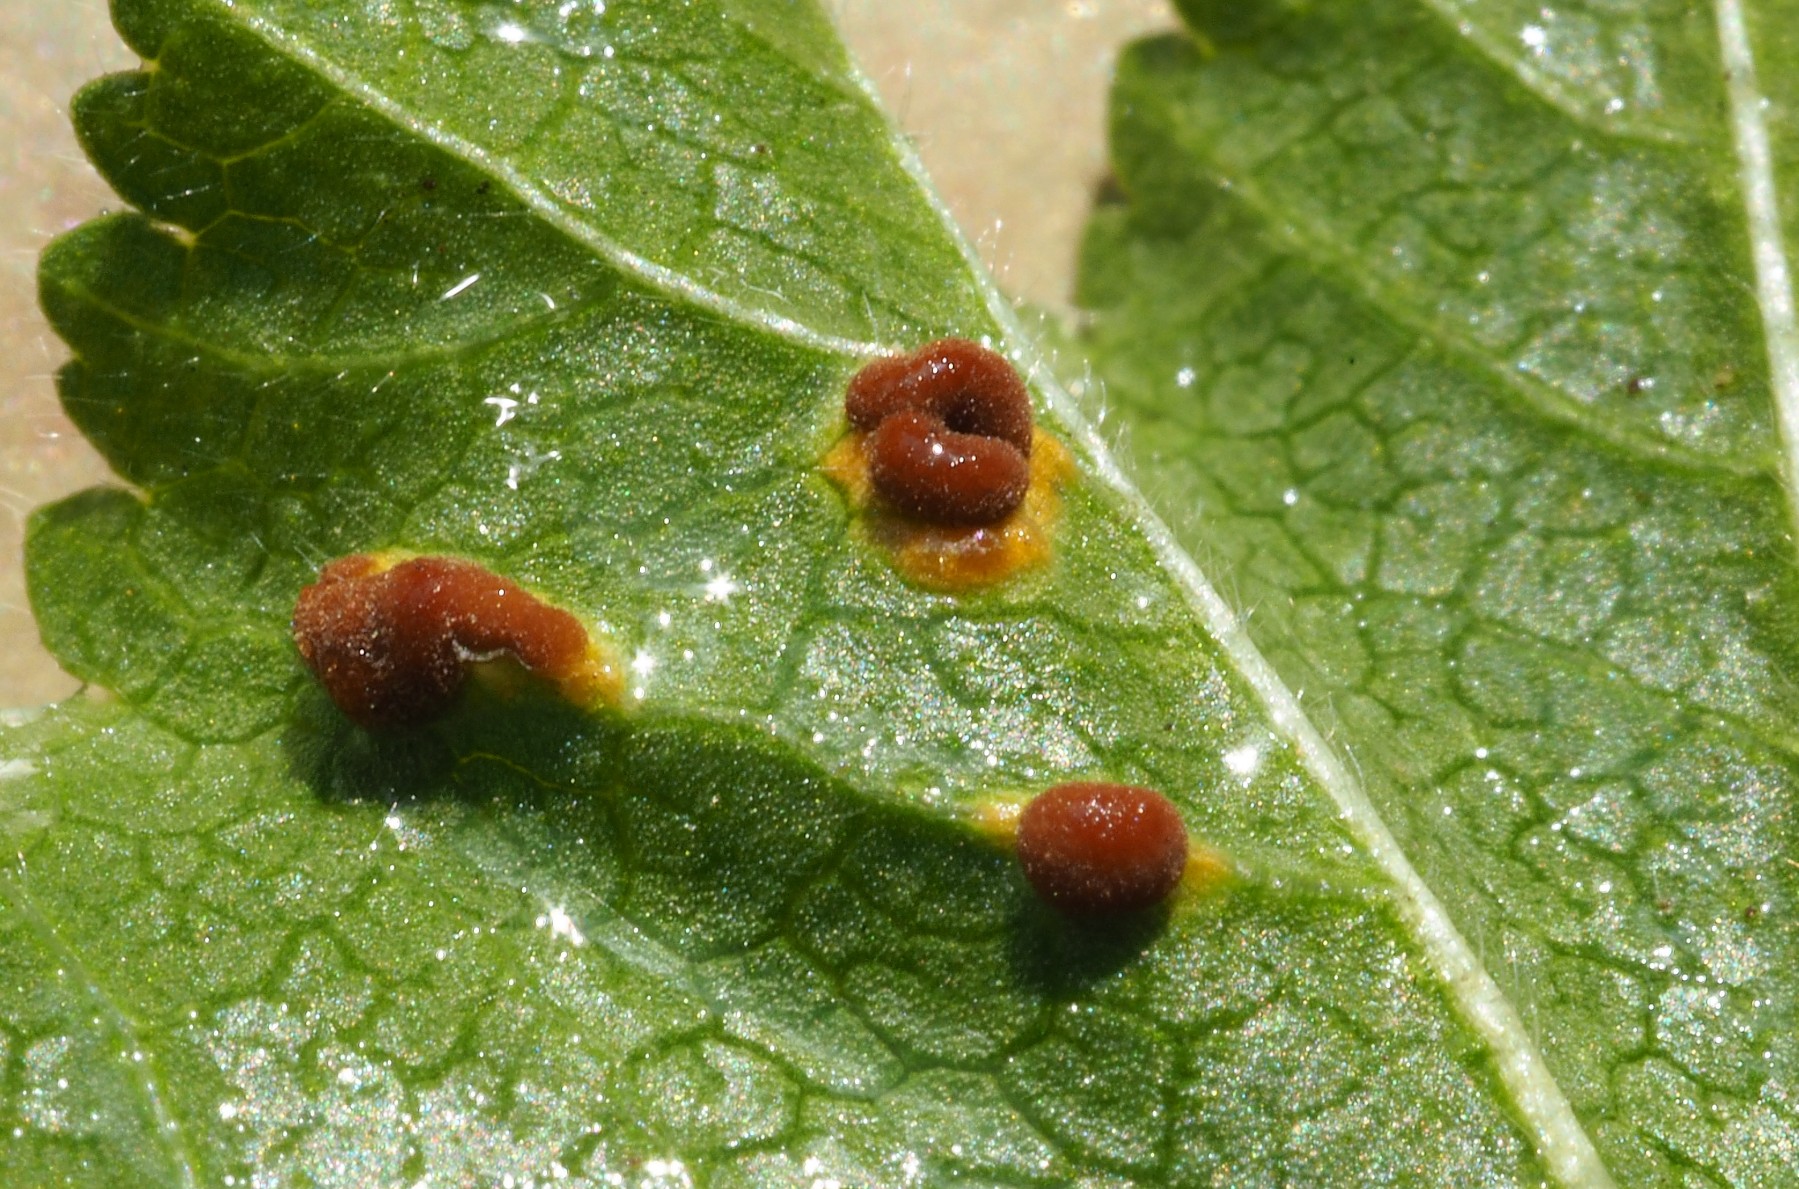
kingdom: Fungi
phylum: Basidiomycota
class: Pucciniomycetes
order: Pucciniales
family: Pucciniaceae
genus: Puccinia
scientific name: Puccinia malvacearum
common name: stokrose-tvecellerust
